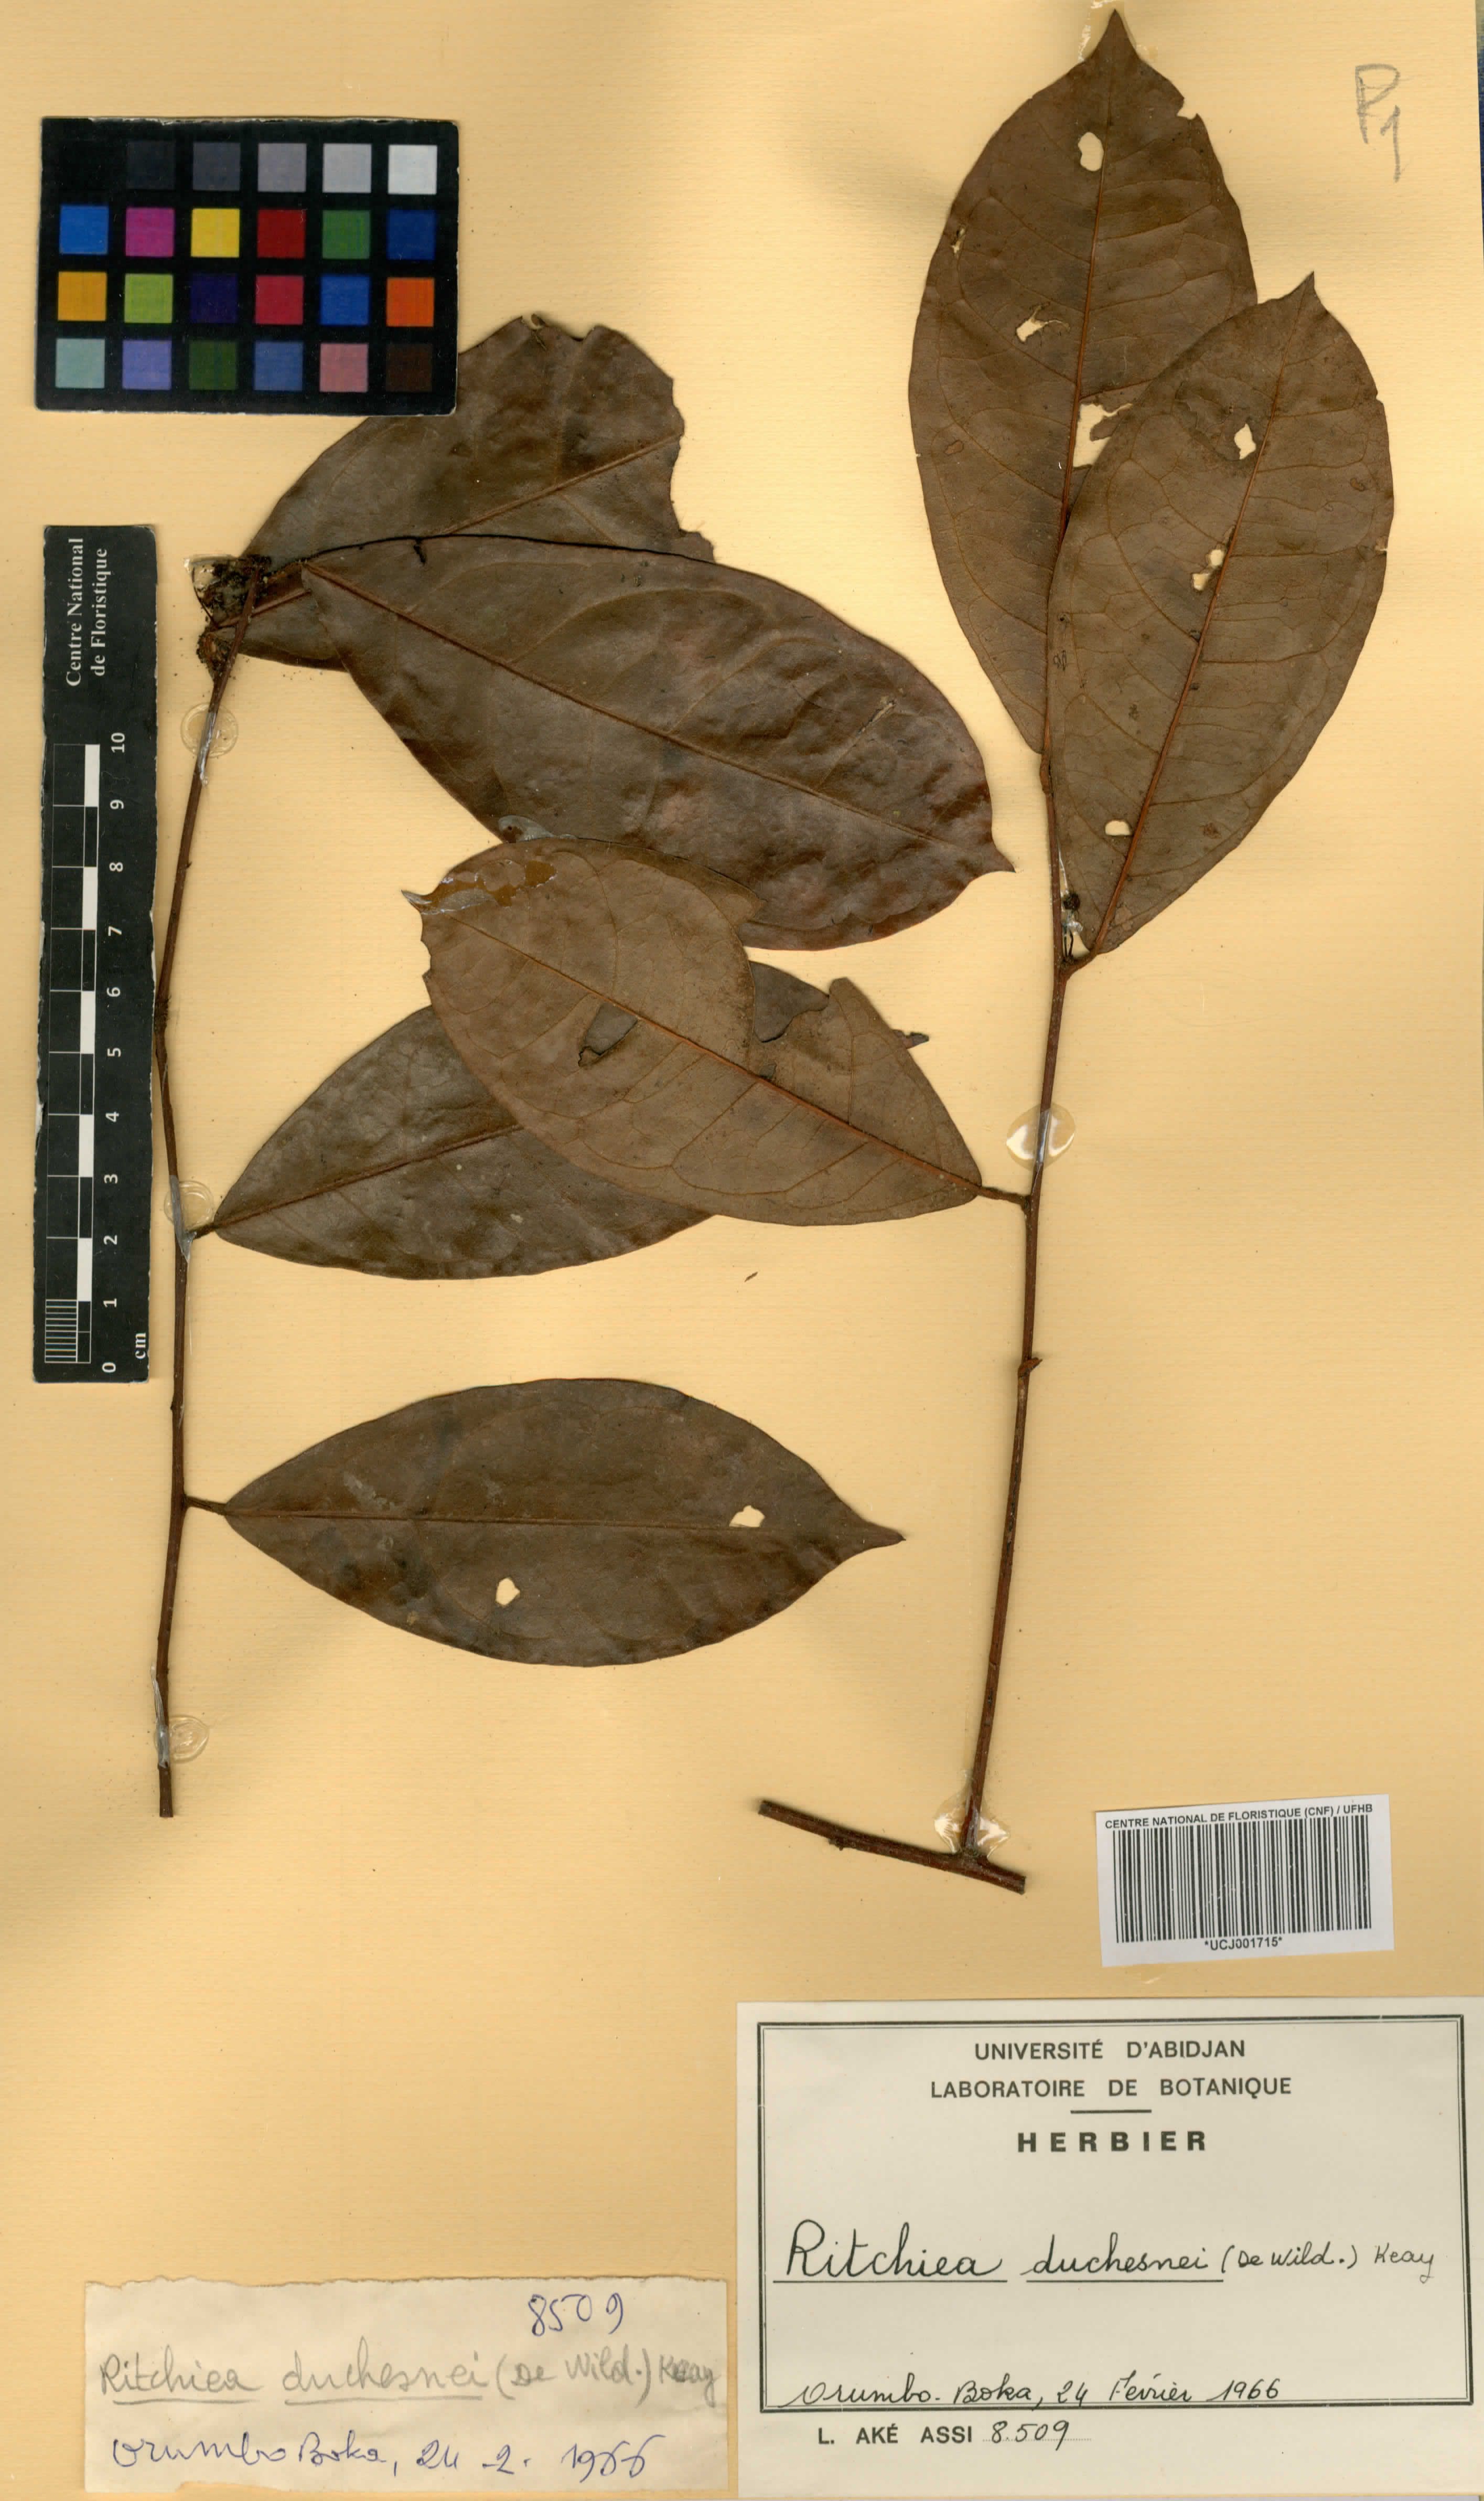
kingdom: Plantae
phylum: Tracheophyta
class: Magnoliopsida
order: Brassicales
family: Capparaceae
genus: Maerua
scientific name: Maerua duchesnei
